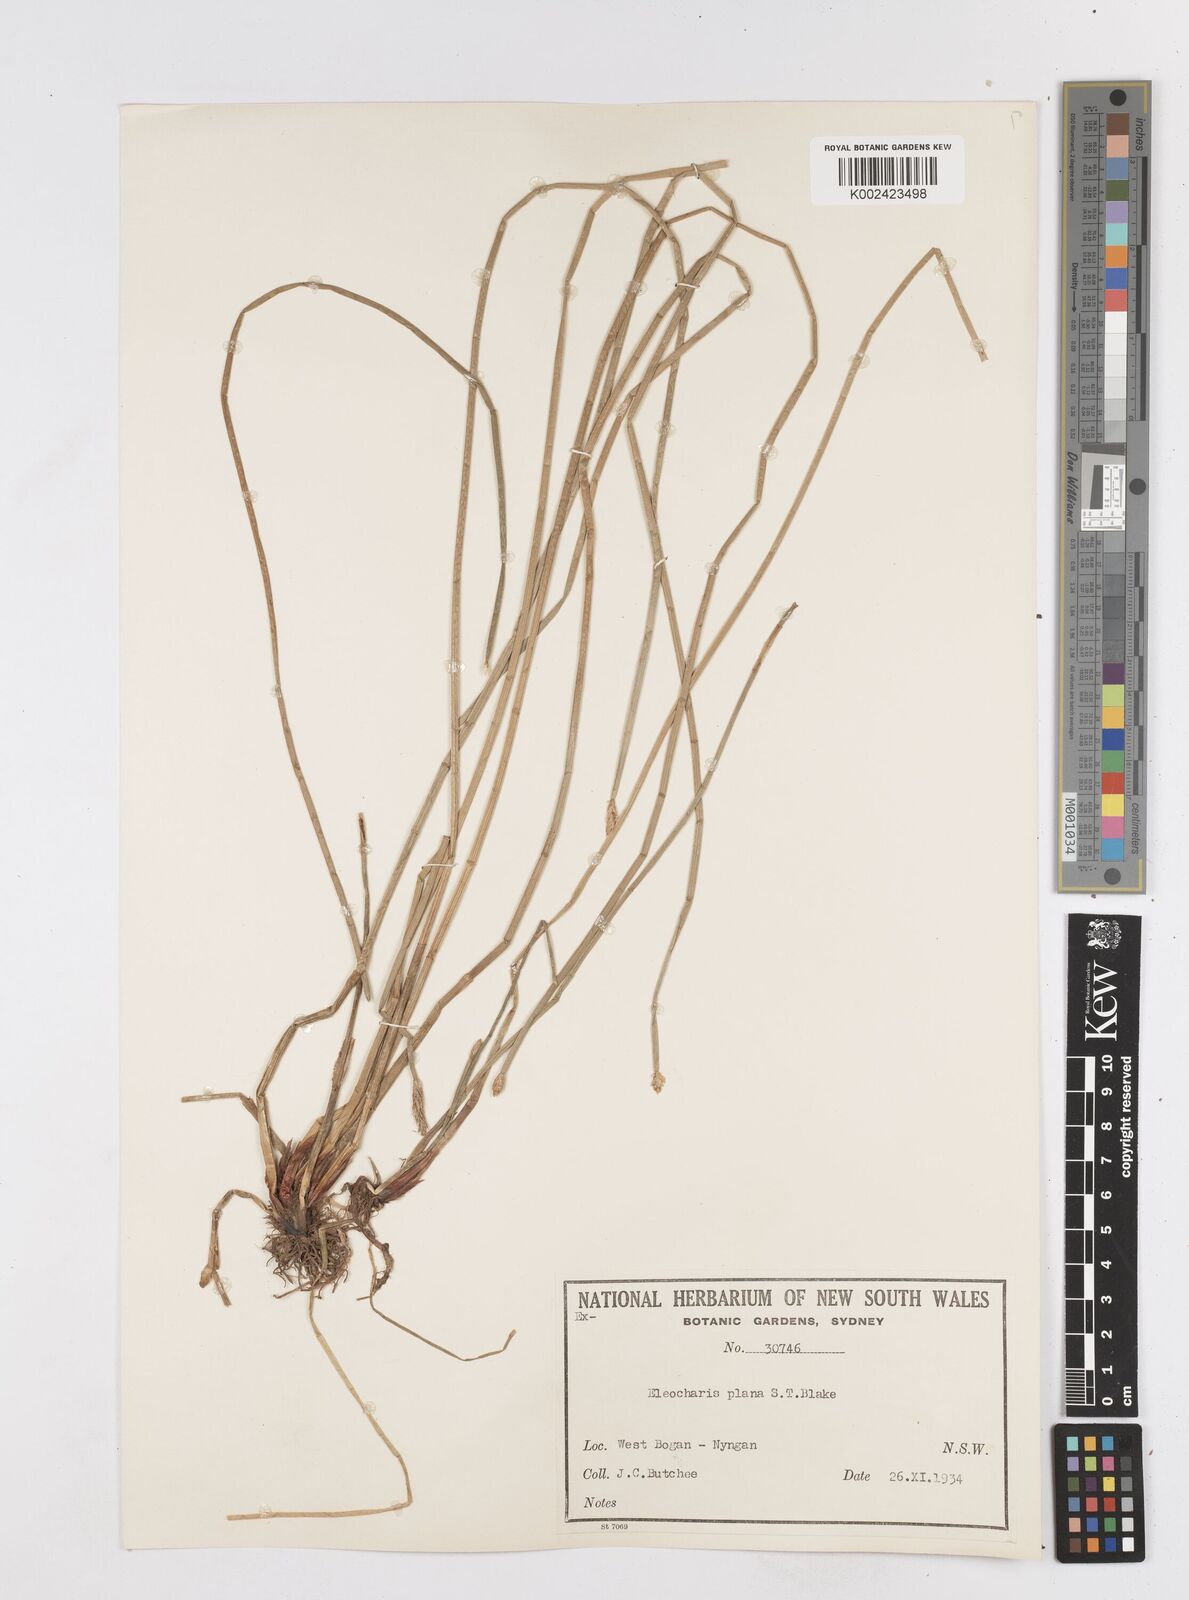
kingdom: Plantae
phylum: Tracheophyta
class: Liliopsida
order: Poales
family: Cyperaceae
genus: Eleocharis
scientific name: Eleocharis plana
